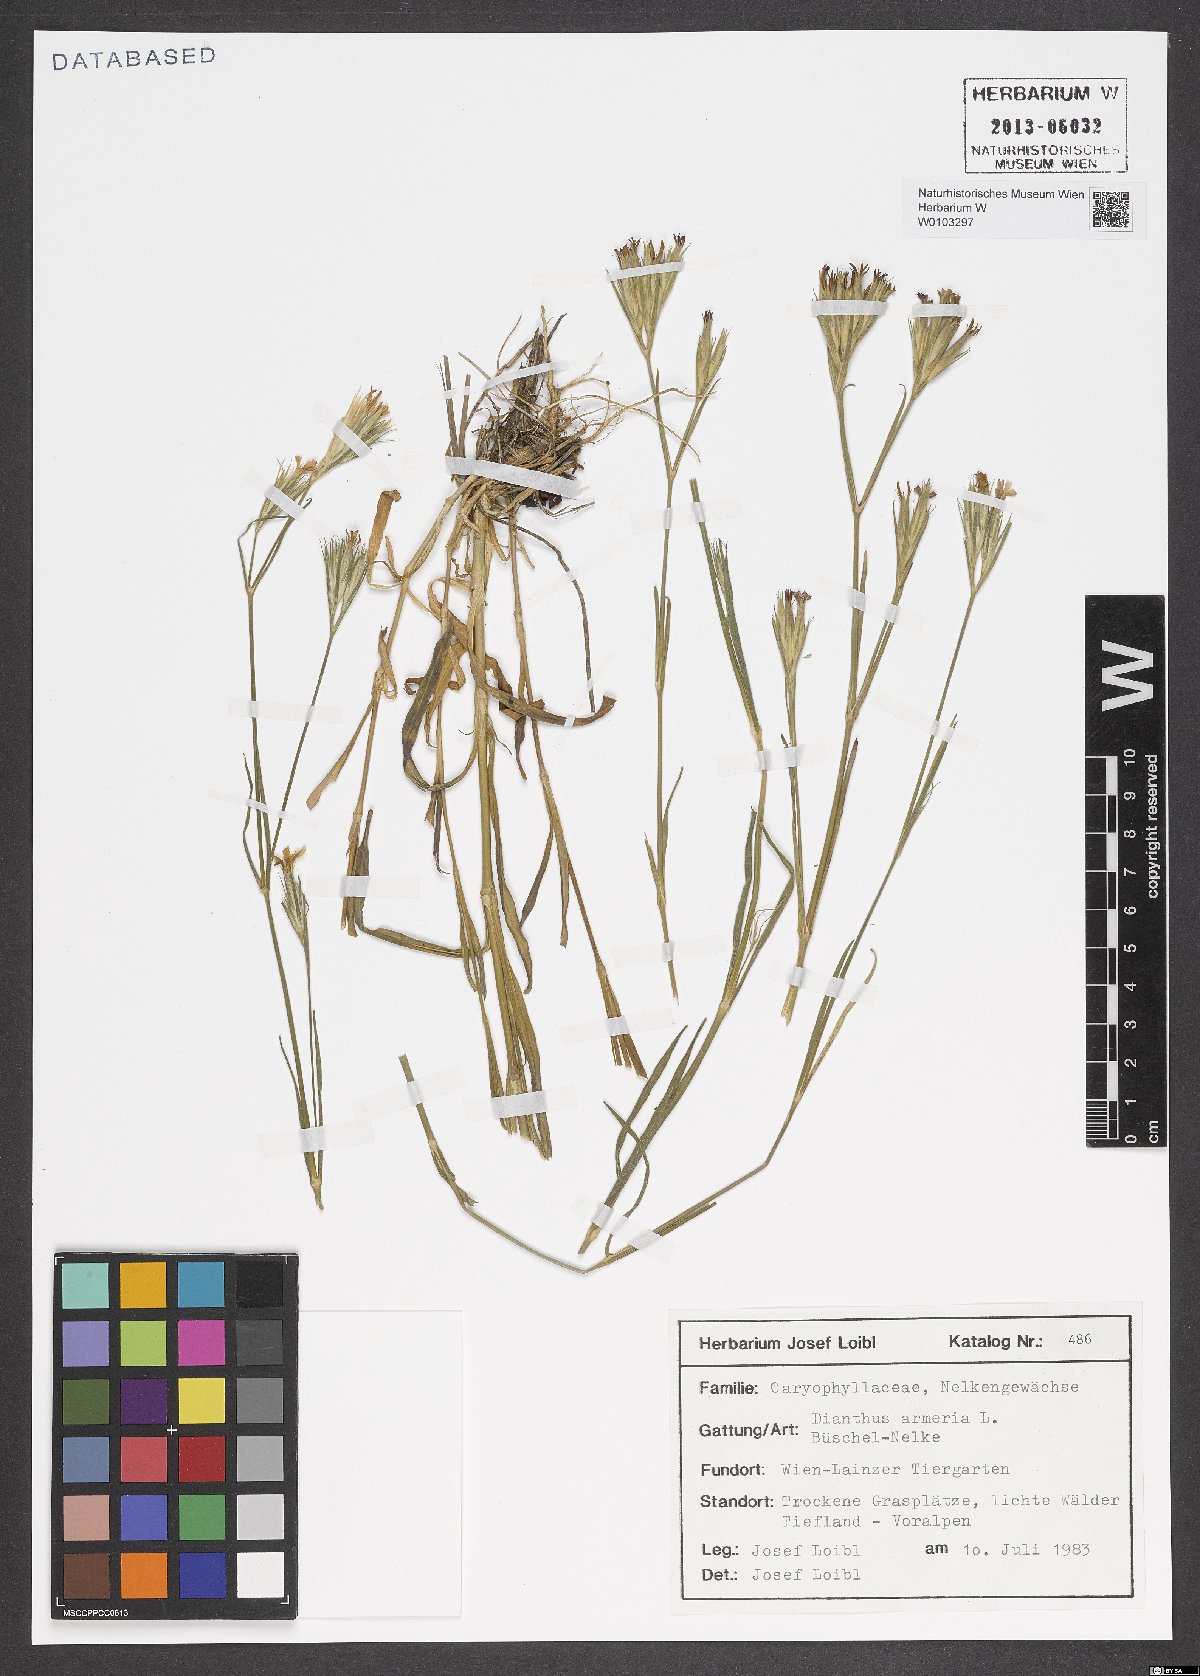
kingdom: Plantae
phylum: Tracheophyta
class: Magnoliopsida
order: Caryophyllales
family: Caryophyllaceae
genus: Dianthus
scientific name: Dianthus armeria
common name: Deptford pink
